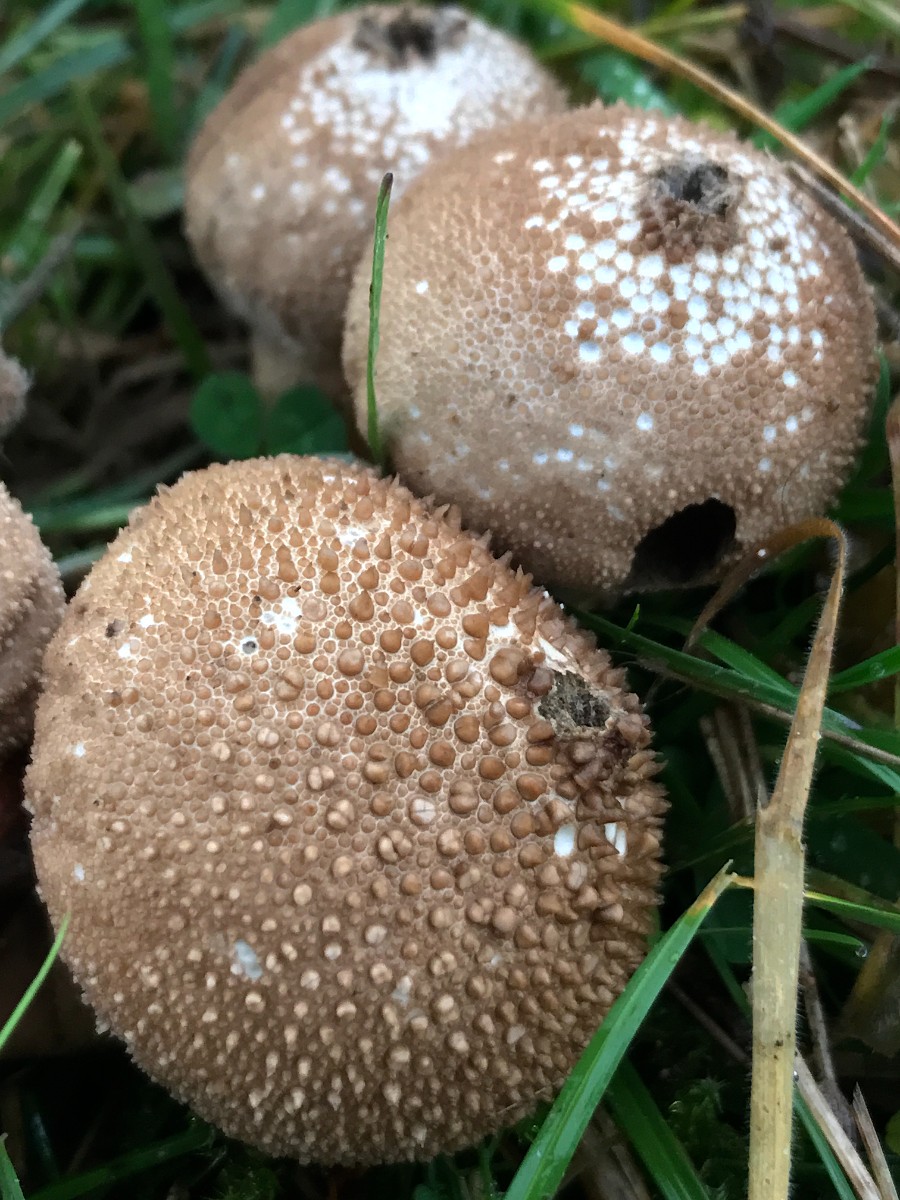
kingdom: Fungi
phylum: Basidiomycota
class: Agaricomycetes
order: Agaricales
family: Lycoperdaceae
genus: Lycoperdon
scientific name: Lycoperdon perlatum
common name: krystal-støvbold
